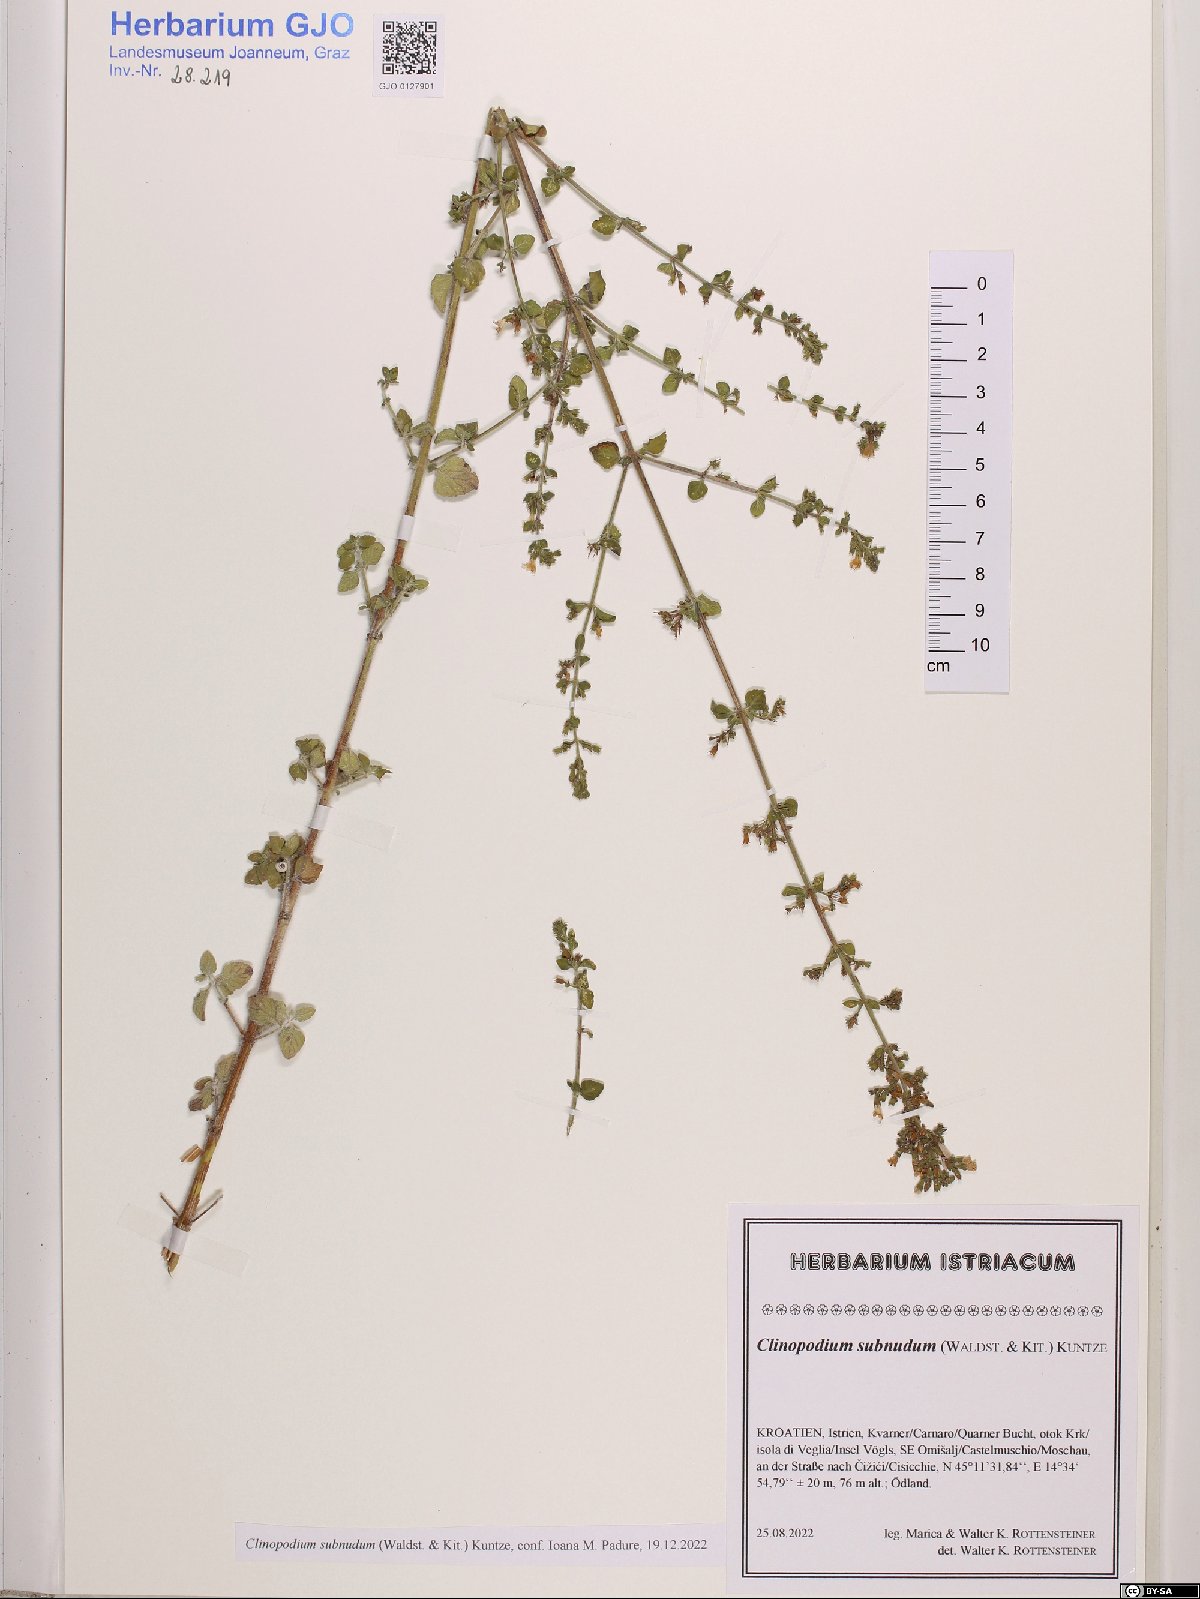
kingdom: Plantae
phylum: Tracheophyta
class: Magnoliopsida
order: Lamiales
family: Lamiaceae
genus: Clinopodium
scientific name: Clinopodium nepeta
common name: Lesser calamint
